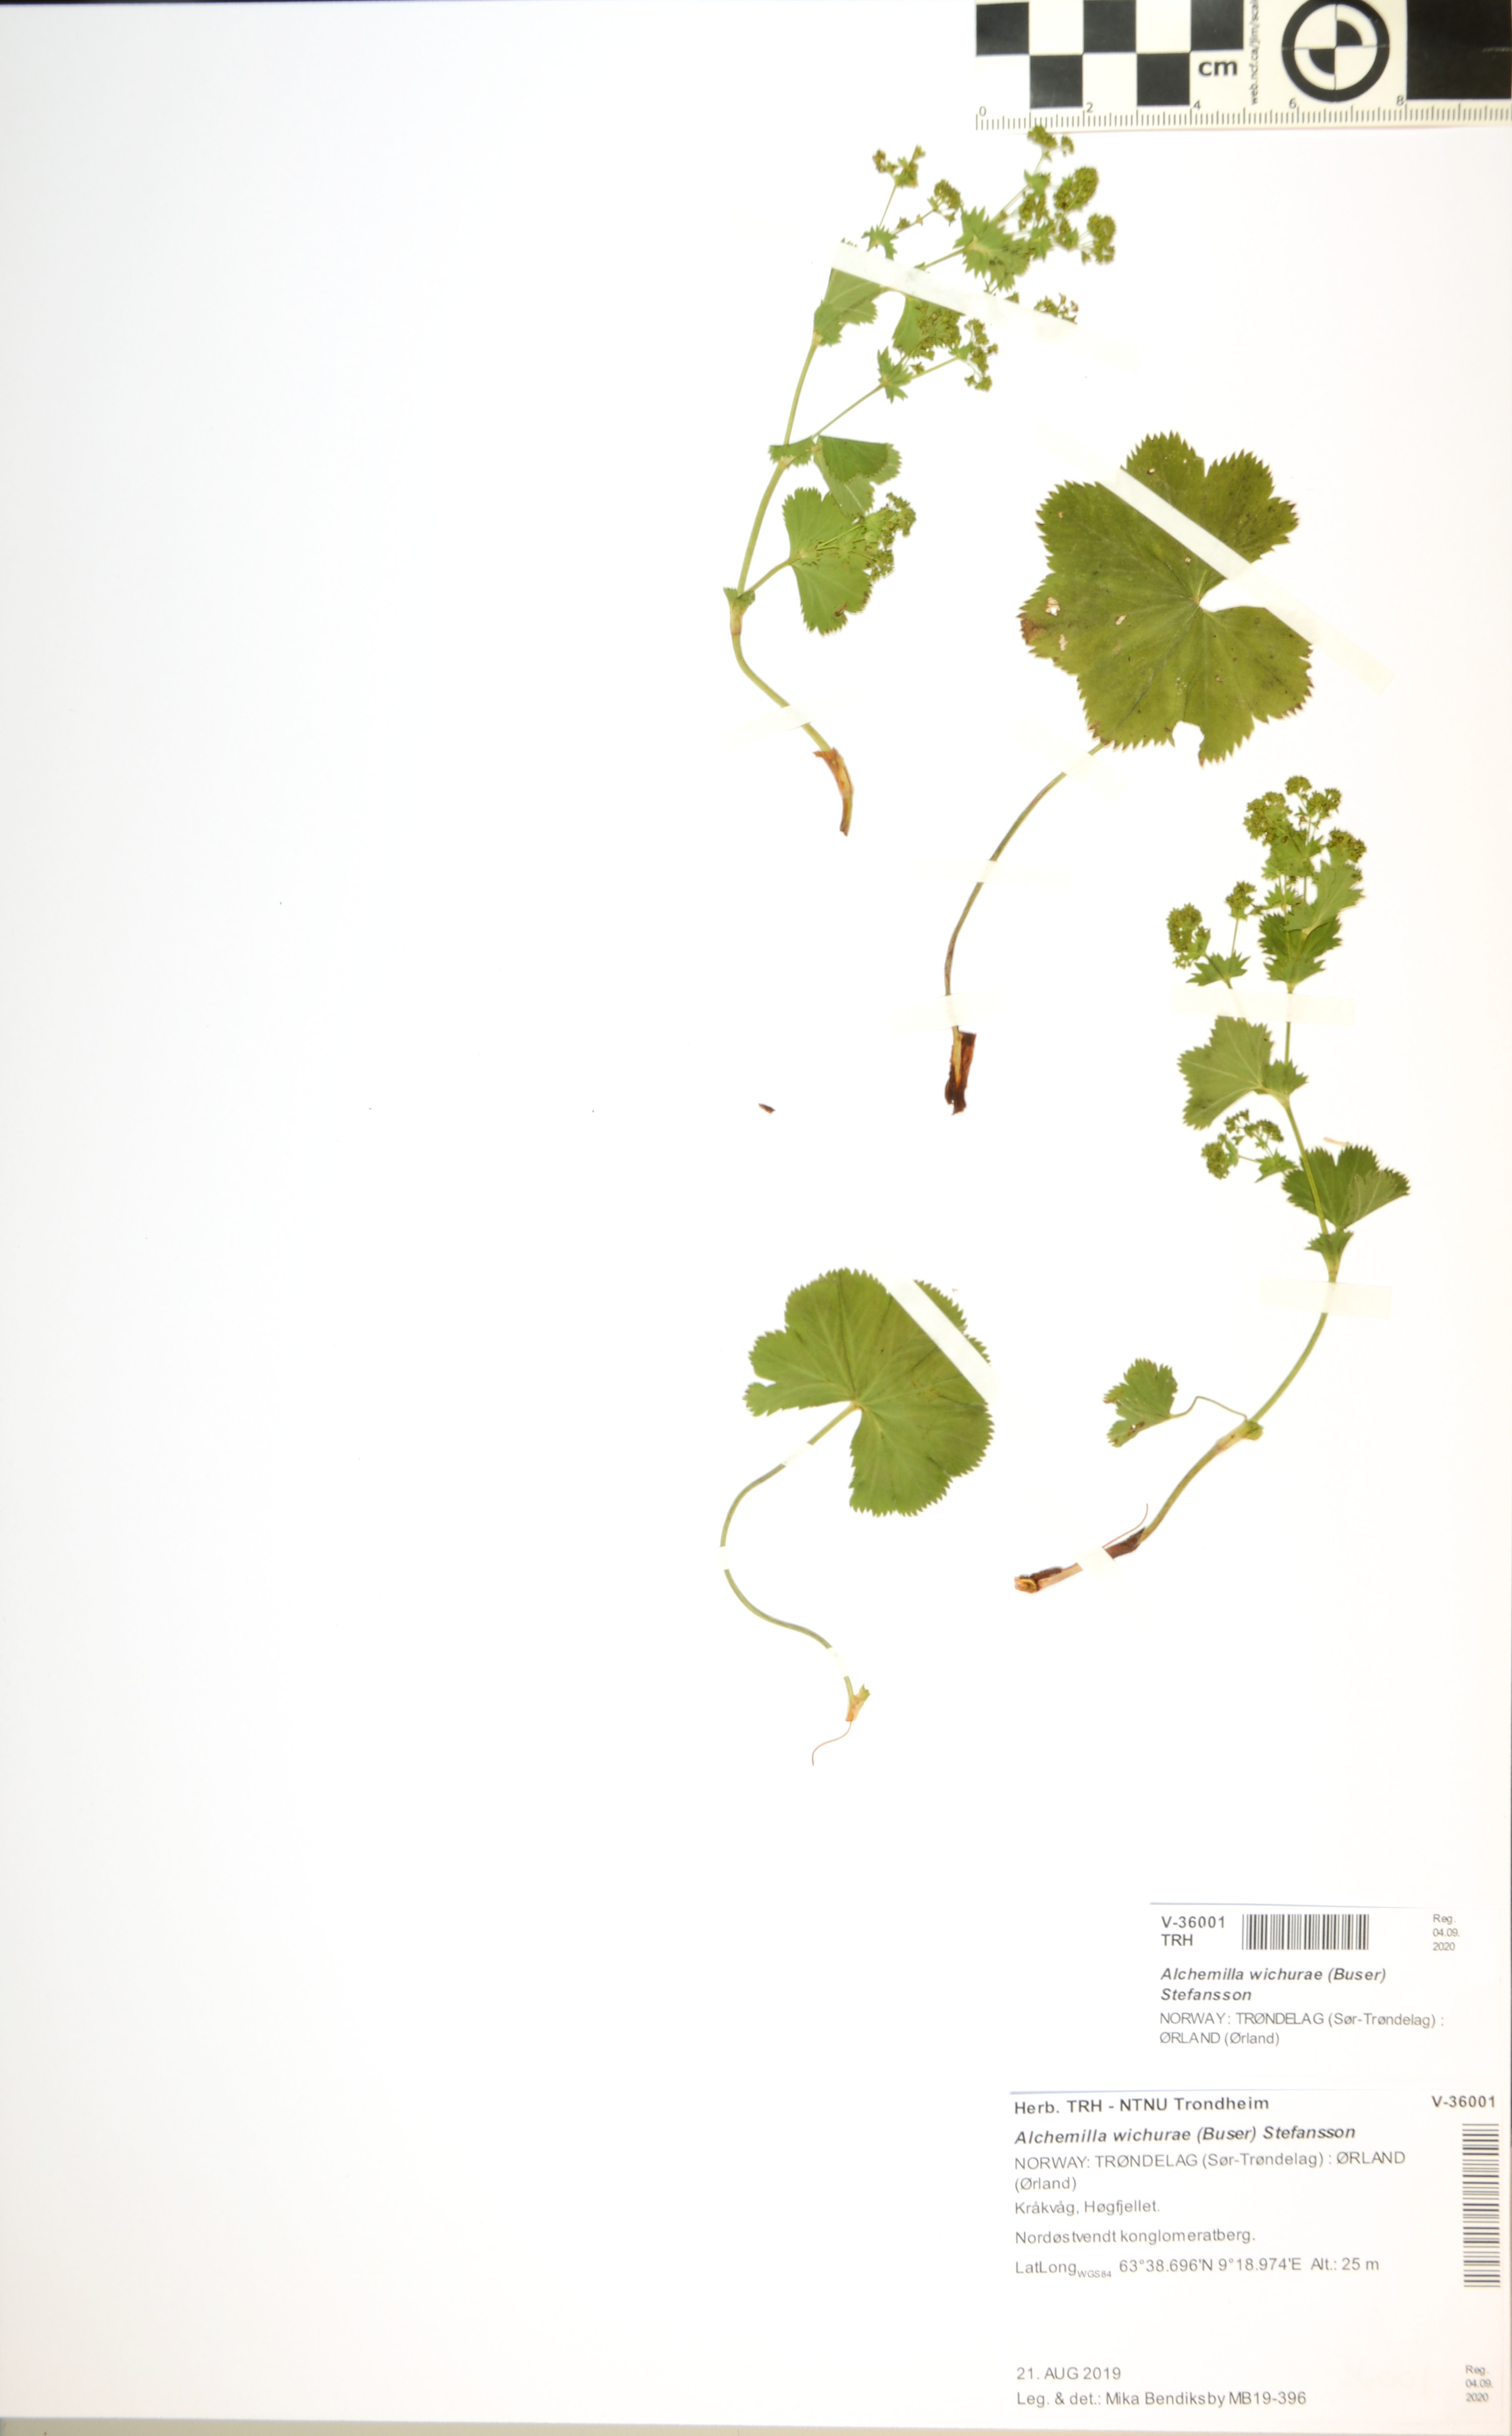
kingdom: Plantae
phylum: Tracheophyta
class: Magnoliopsida
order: Rosales
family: Rosaceae
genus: Alchemilla
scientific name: Alchemilla wichurae
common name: Rock lady's mantle
